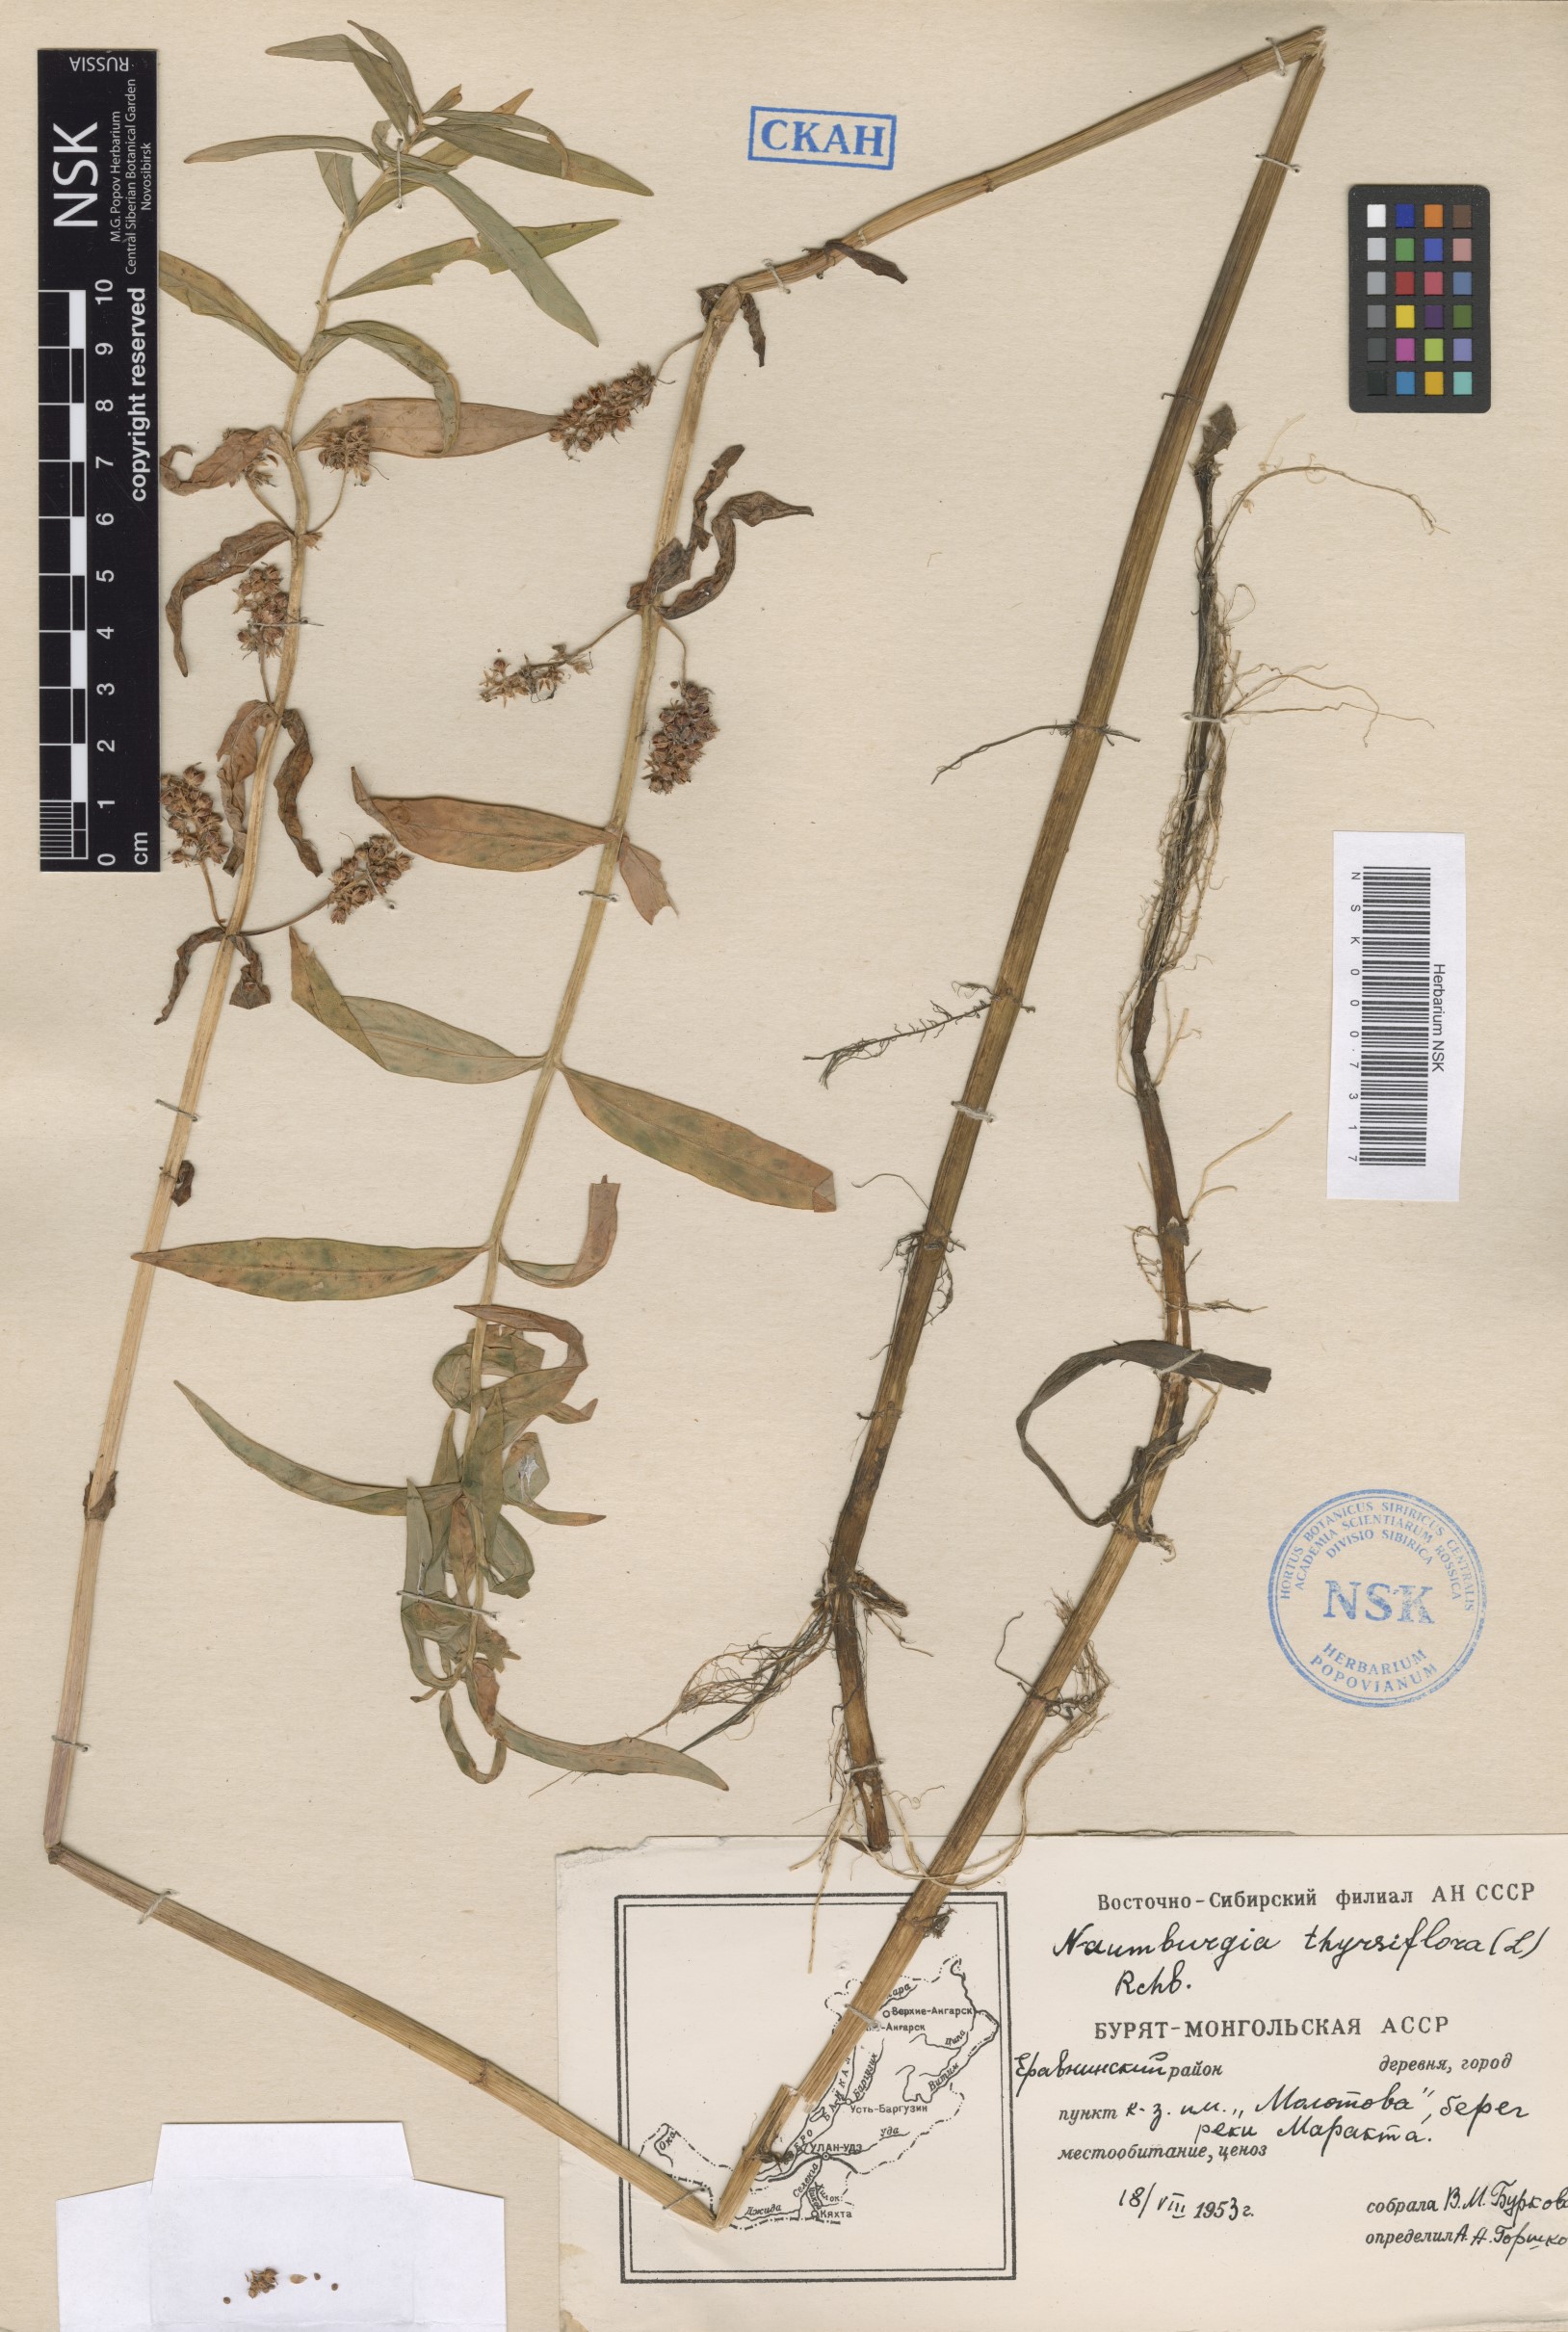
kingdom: Plantae
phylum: Tracheophyta
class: Magnoliopsida
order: Ericales
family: Primulaceae
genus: Lysimachia
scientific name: Lysimachia thyrsiflora
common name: Tufted loosestrife
